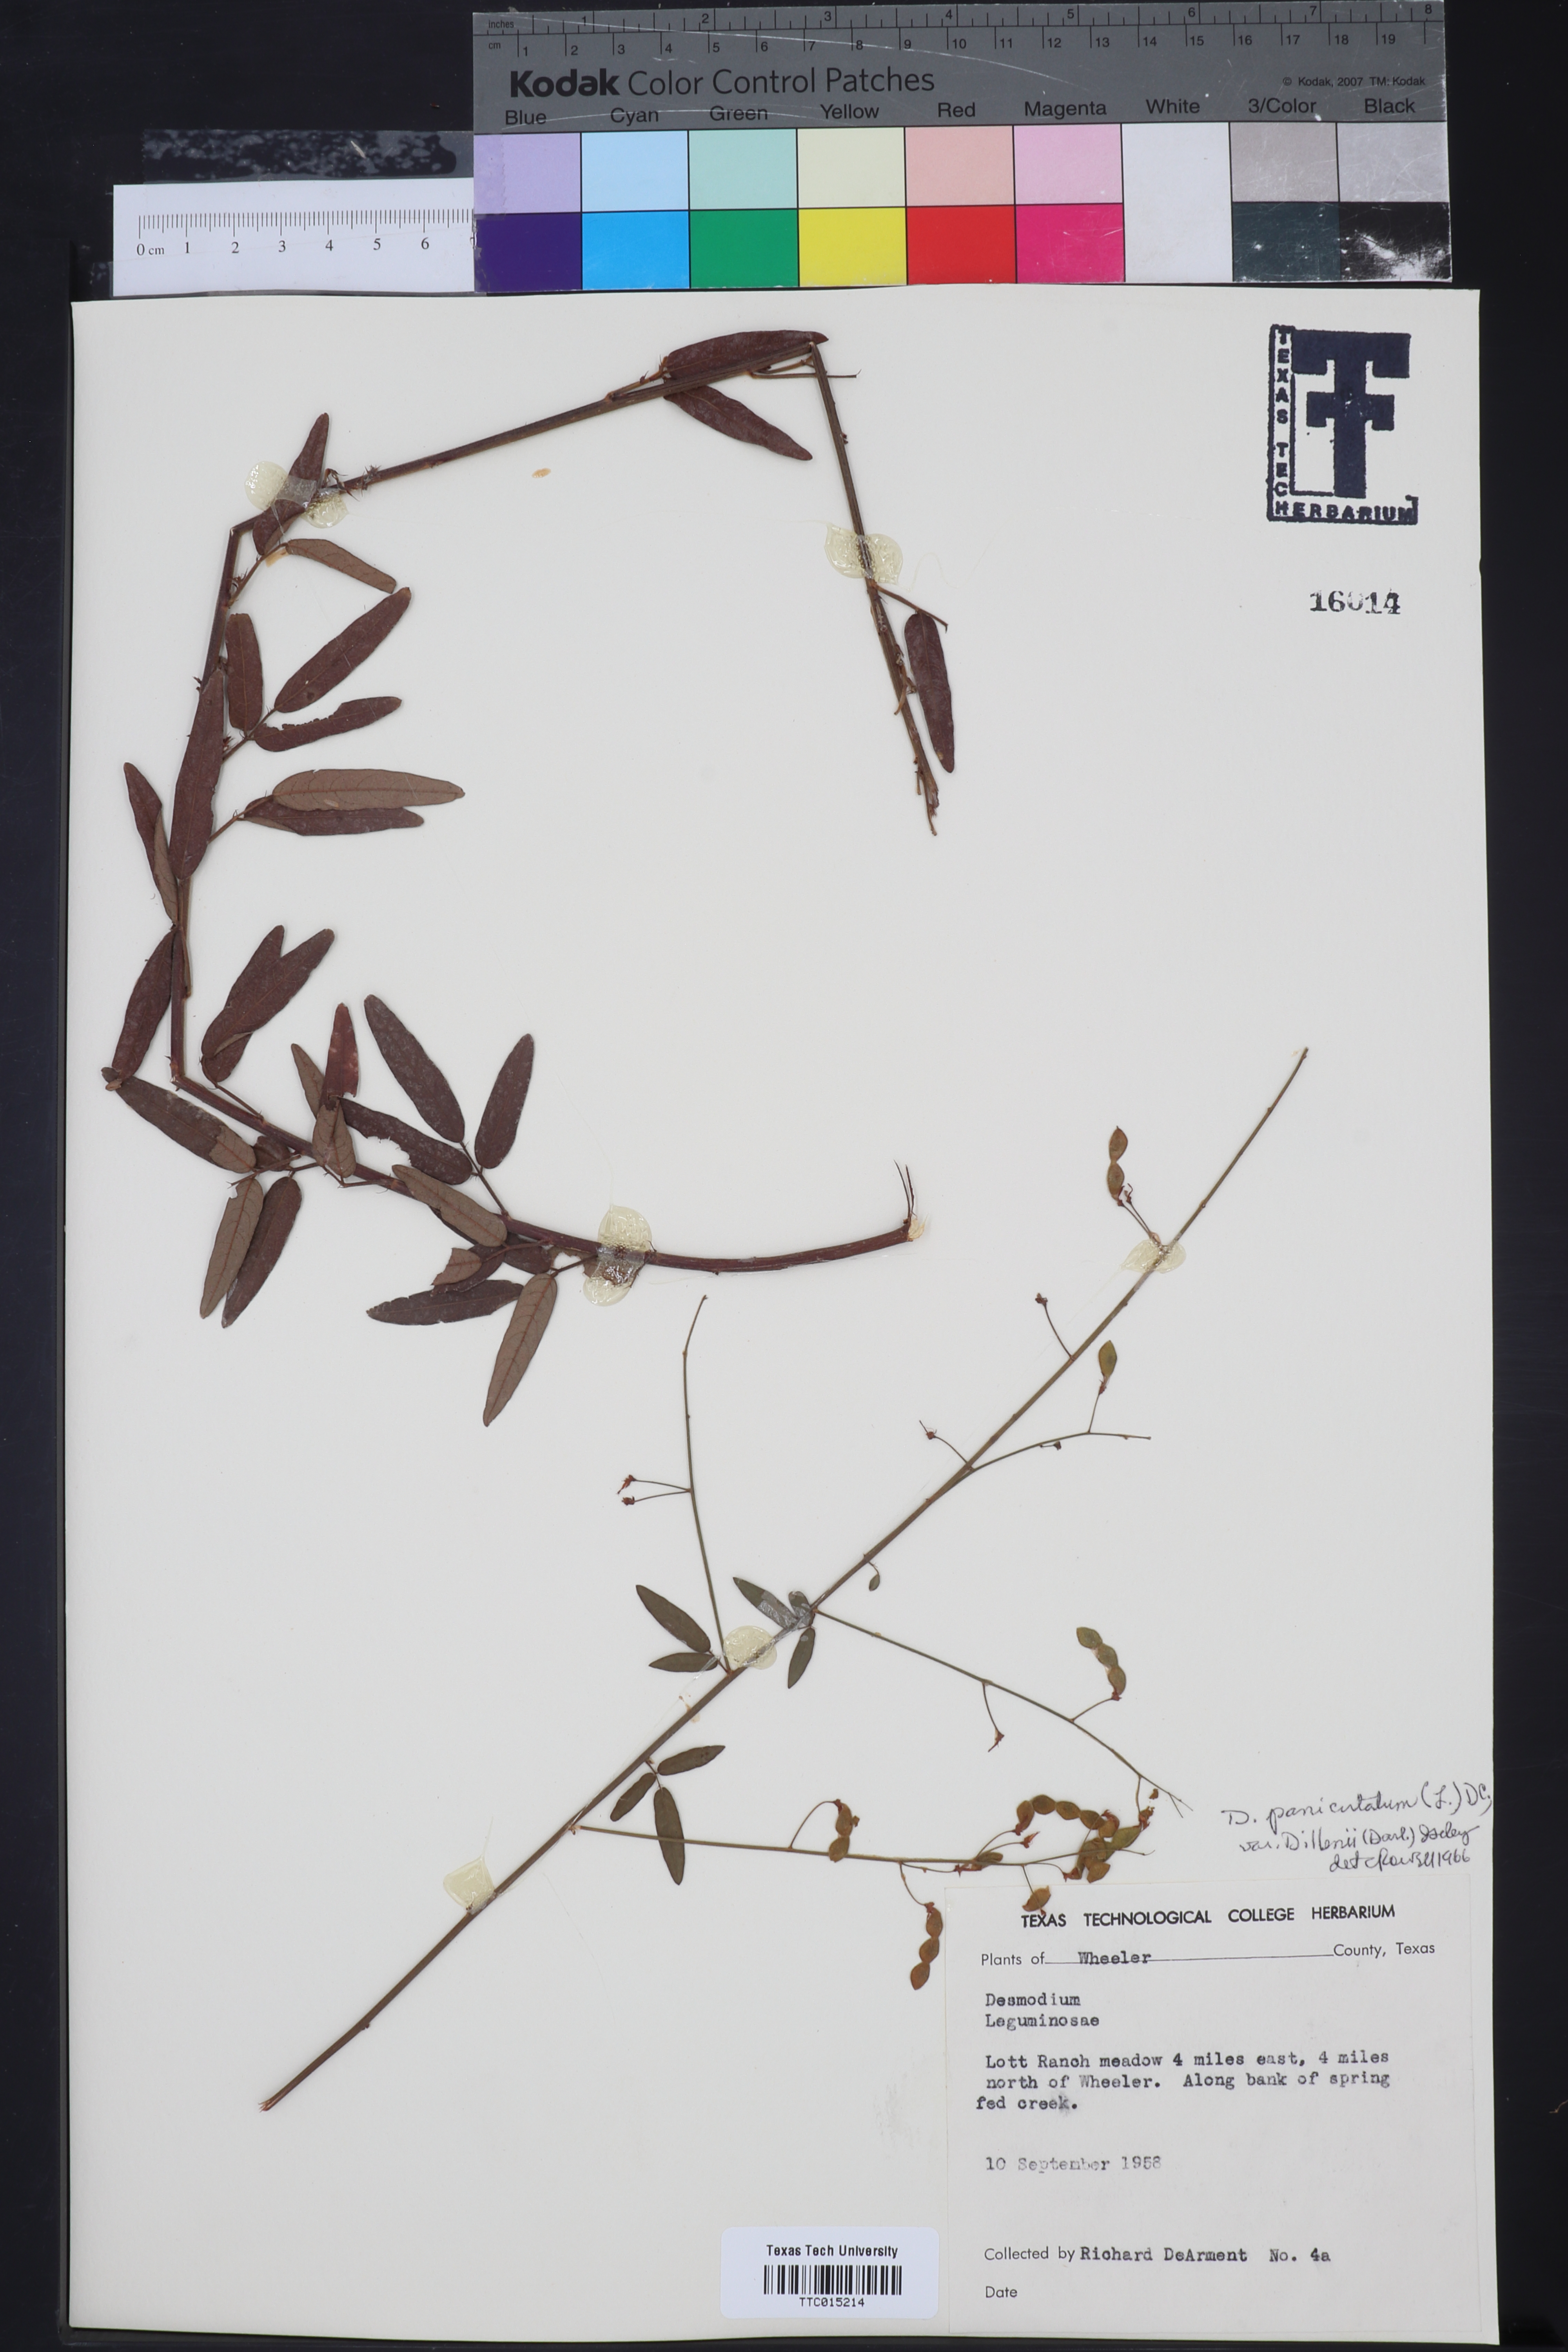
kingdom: Plantae
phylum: Tracheophyta
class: Magnoliopsida
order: Fabales
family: Fabaceae
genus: Desmodium
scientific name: Desmodium perplexum
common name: Perplexed tick trefoil
